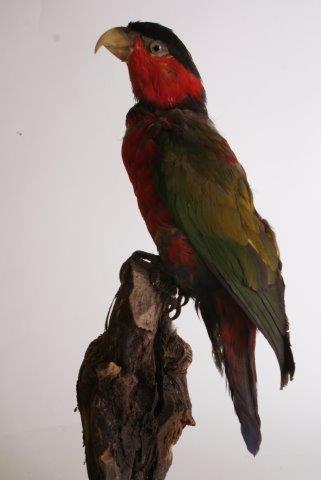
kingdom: Animalia
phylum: Chordata
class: Aves
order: Psittaciformes
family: Psittacidae
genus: Lorius
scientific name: Lorius lory
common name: Black-capped lory
